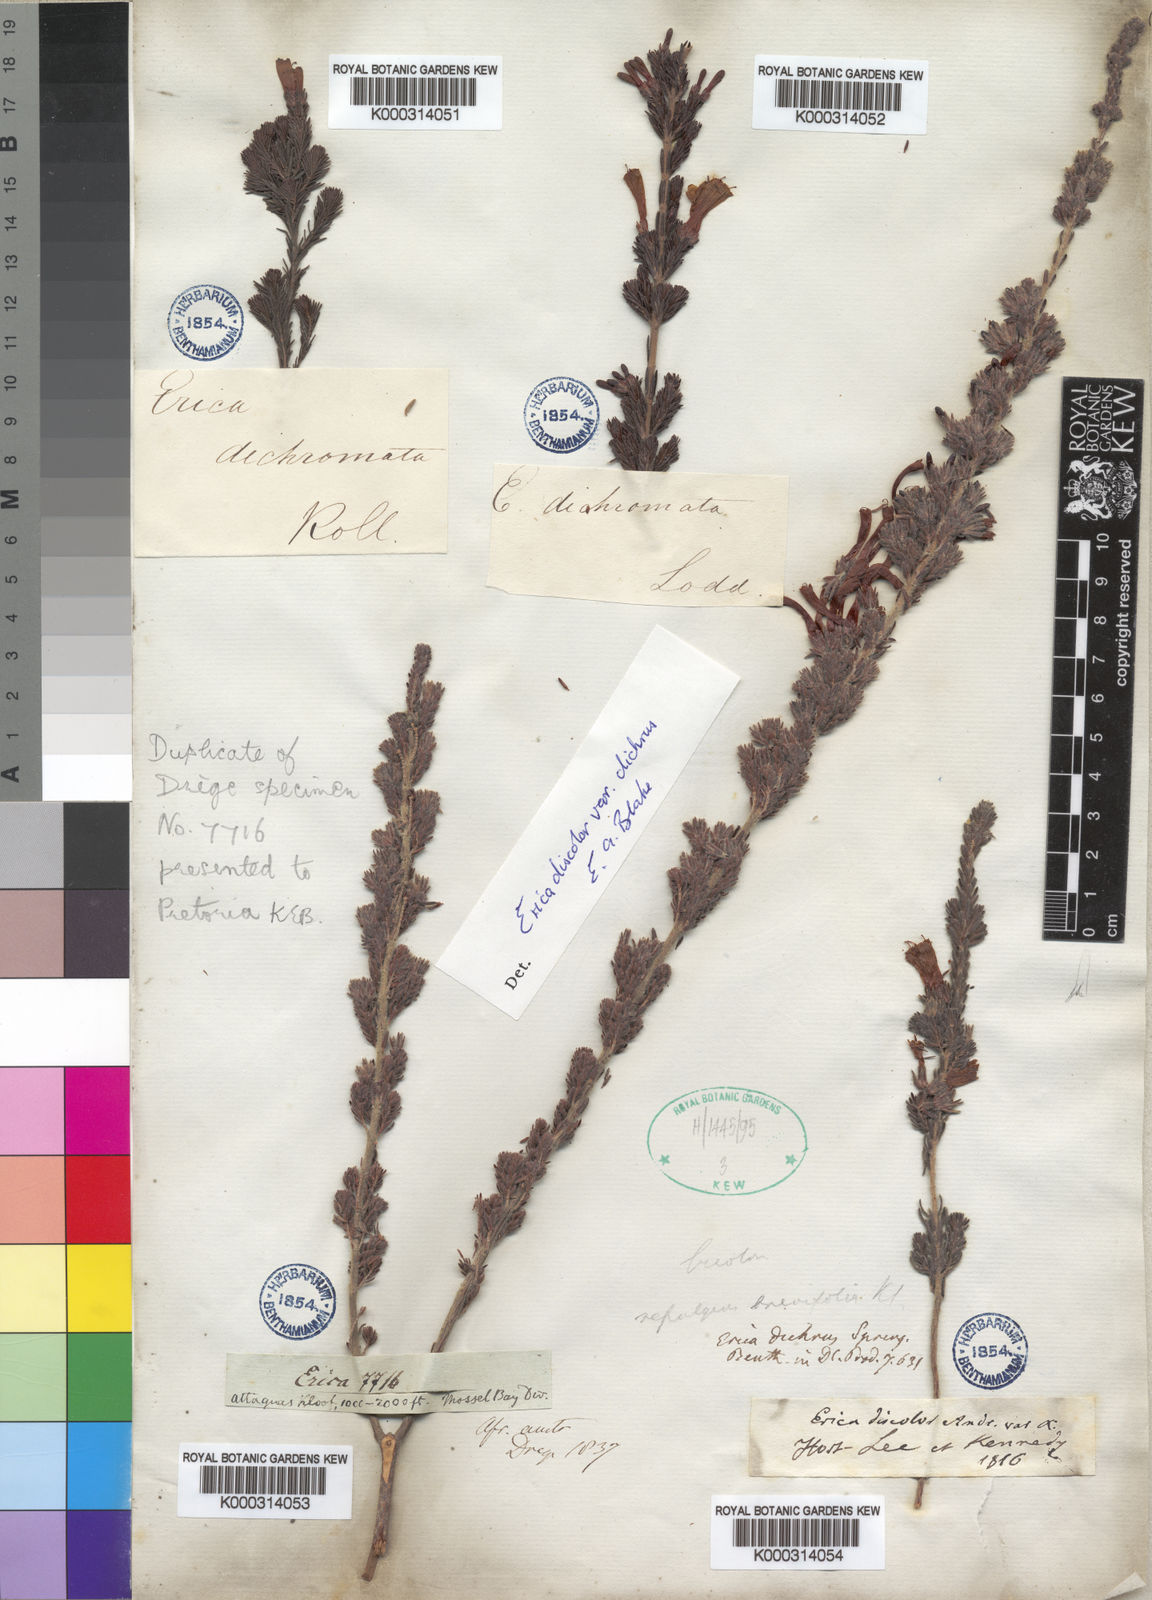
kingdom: Plantae
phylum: Tracheophyta
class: Magnoliopsida
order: Ericales
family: Ericaceae
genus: Erica
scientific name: Erica unicolor
